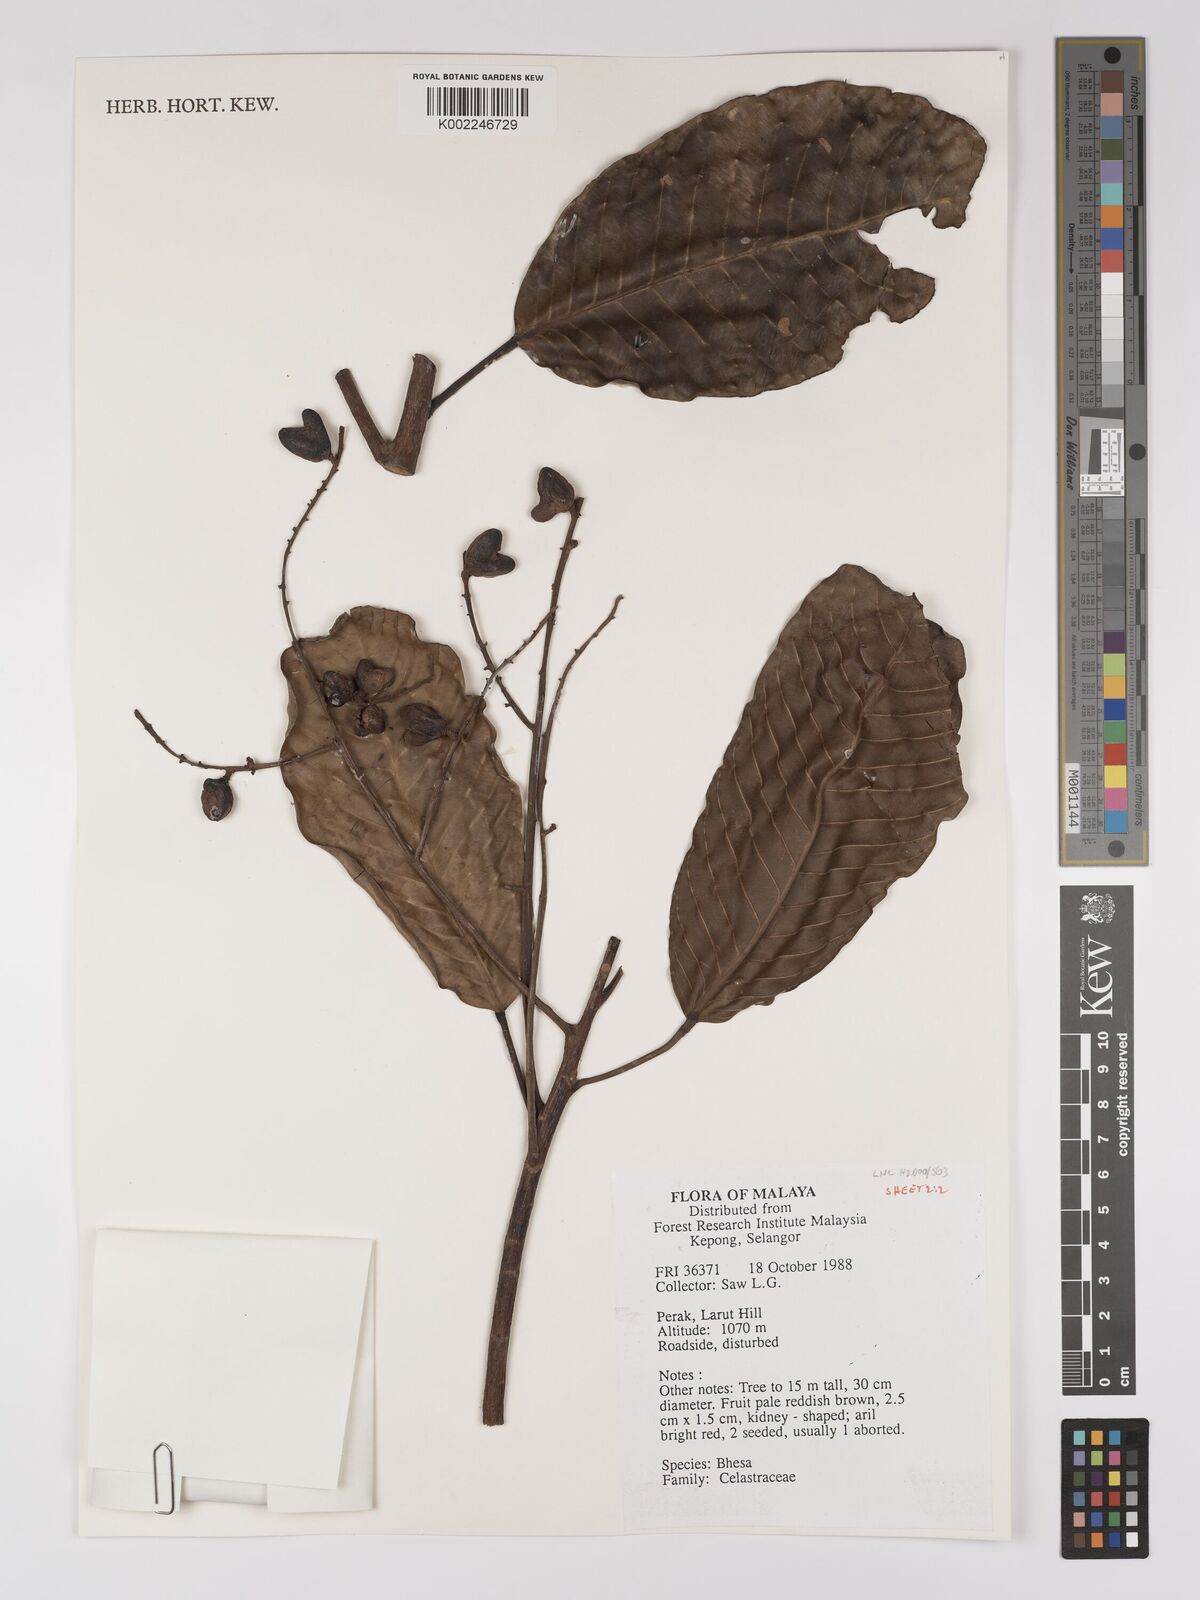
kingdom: Plantae
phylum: Tracheophyta
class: Magnoliopsida
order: Malpighiales
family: Centroplacaceae
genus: Bhesa
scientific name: Bhesa
